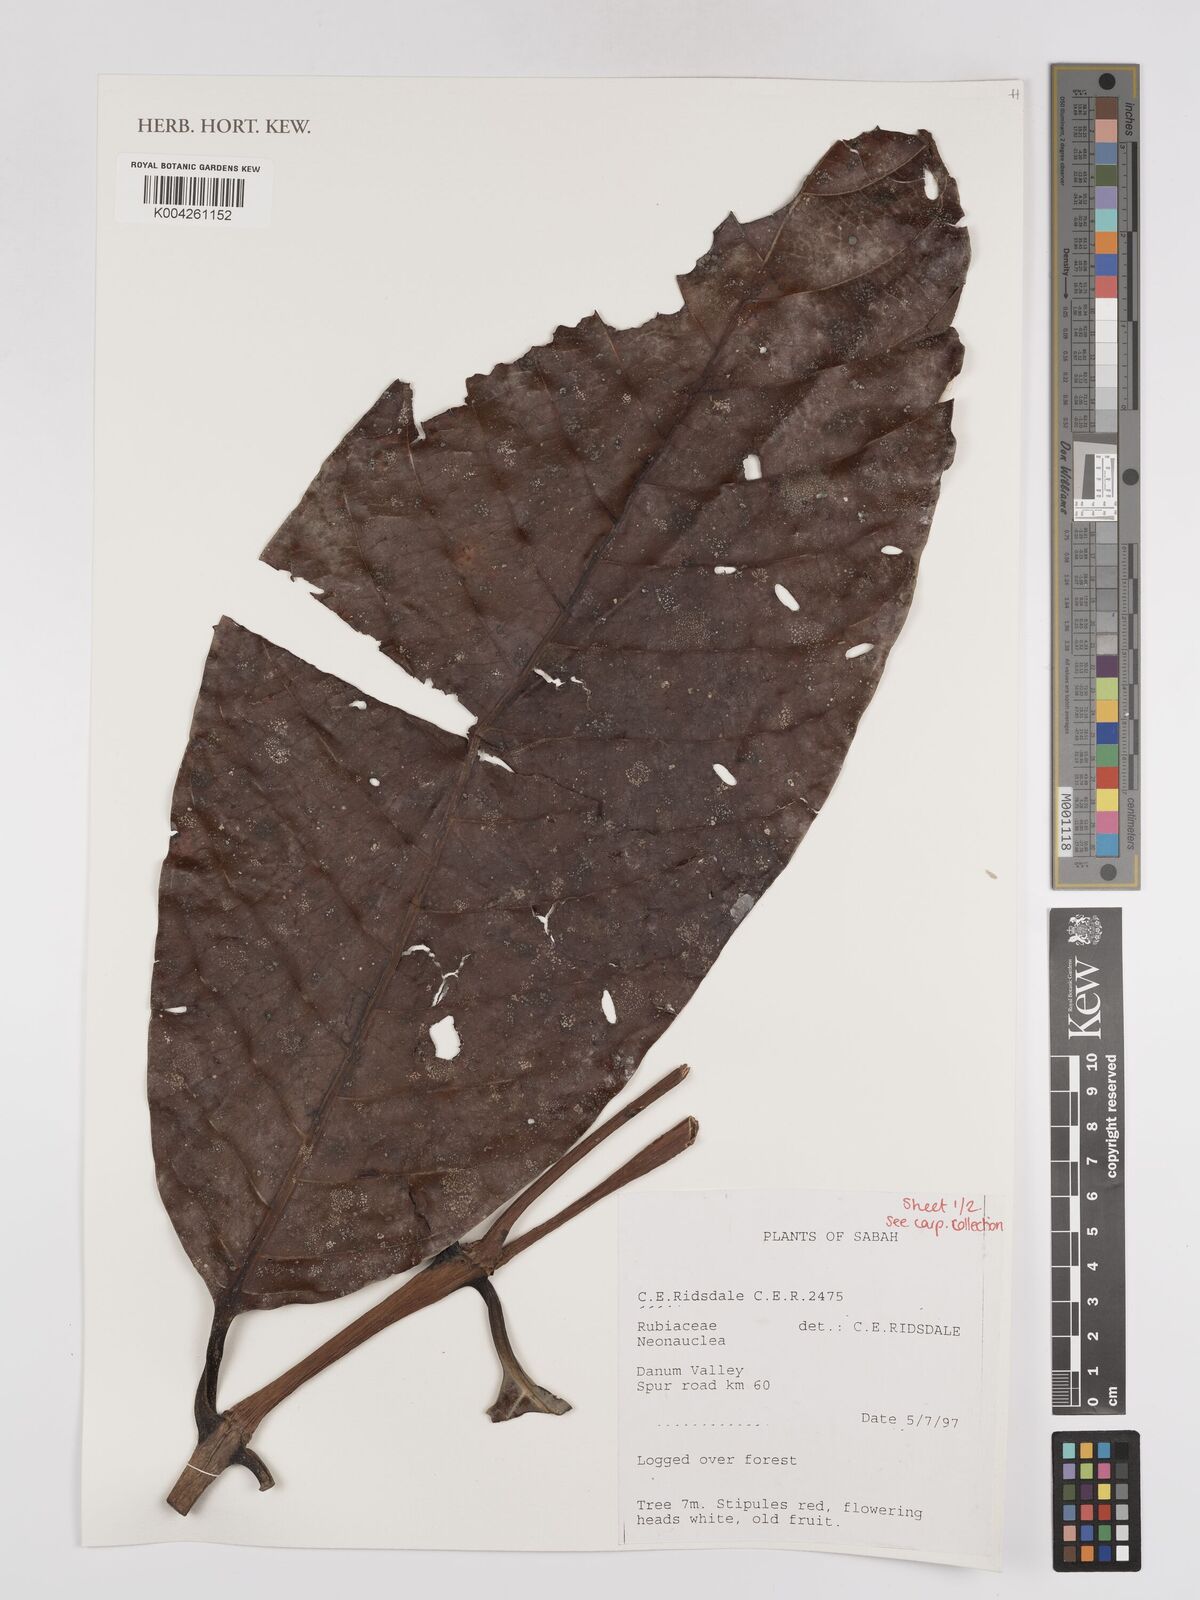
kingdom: Plantae
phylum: Tracheophyta
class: Magnoliopsida
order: Gentianales
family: Rubiaceae
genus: Neonauclea
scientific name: Neonauclea
